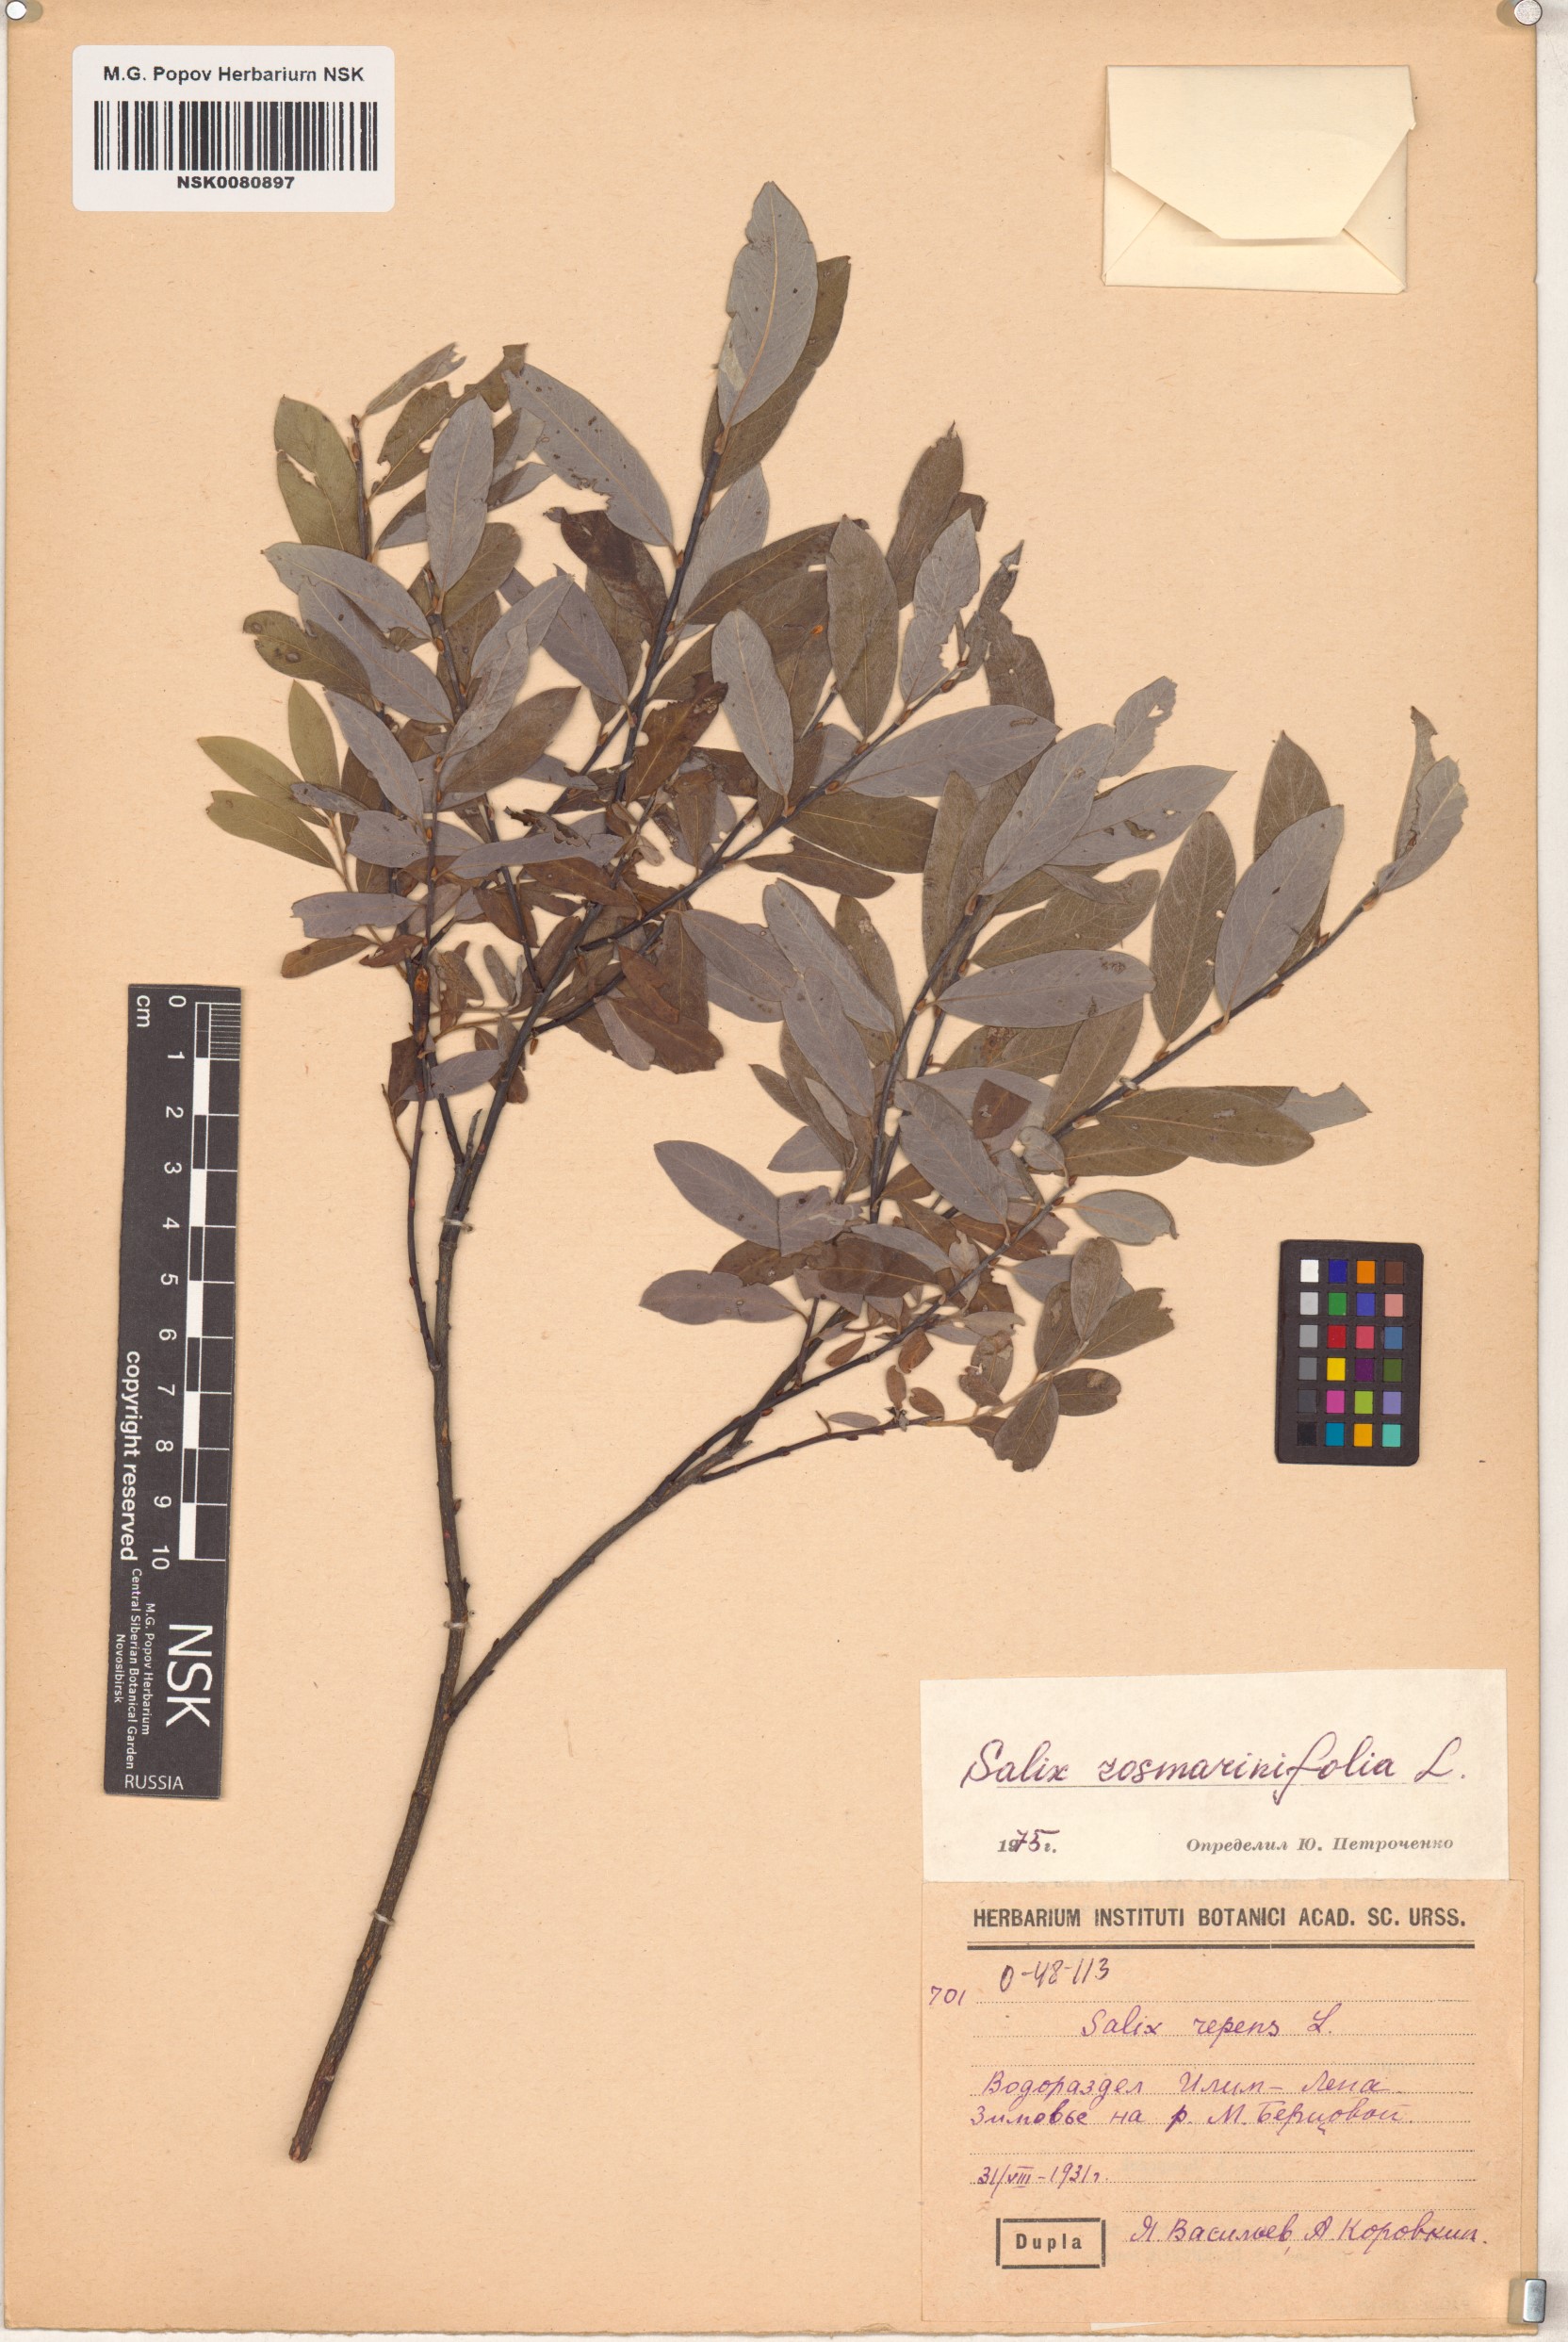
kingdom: Plantae
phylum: Tracheophyta
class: Magnoliopsida
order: Malpighiales
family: Salicaceae
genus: Salix
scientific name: Salix rosmarinifolia
